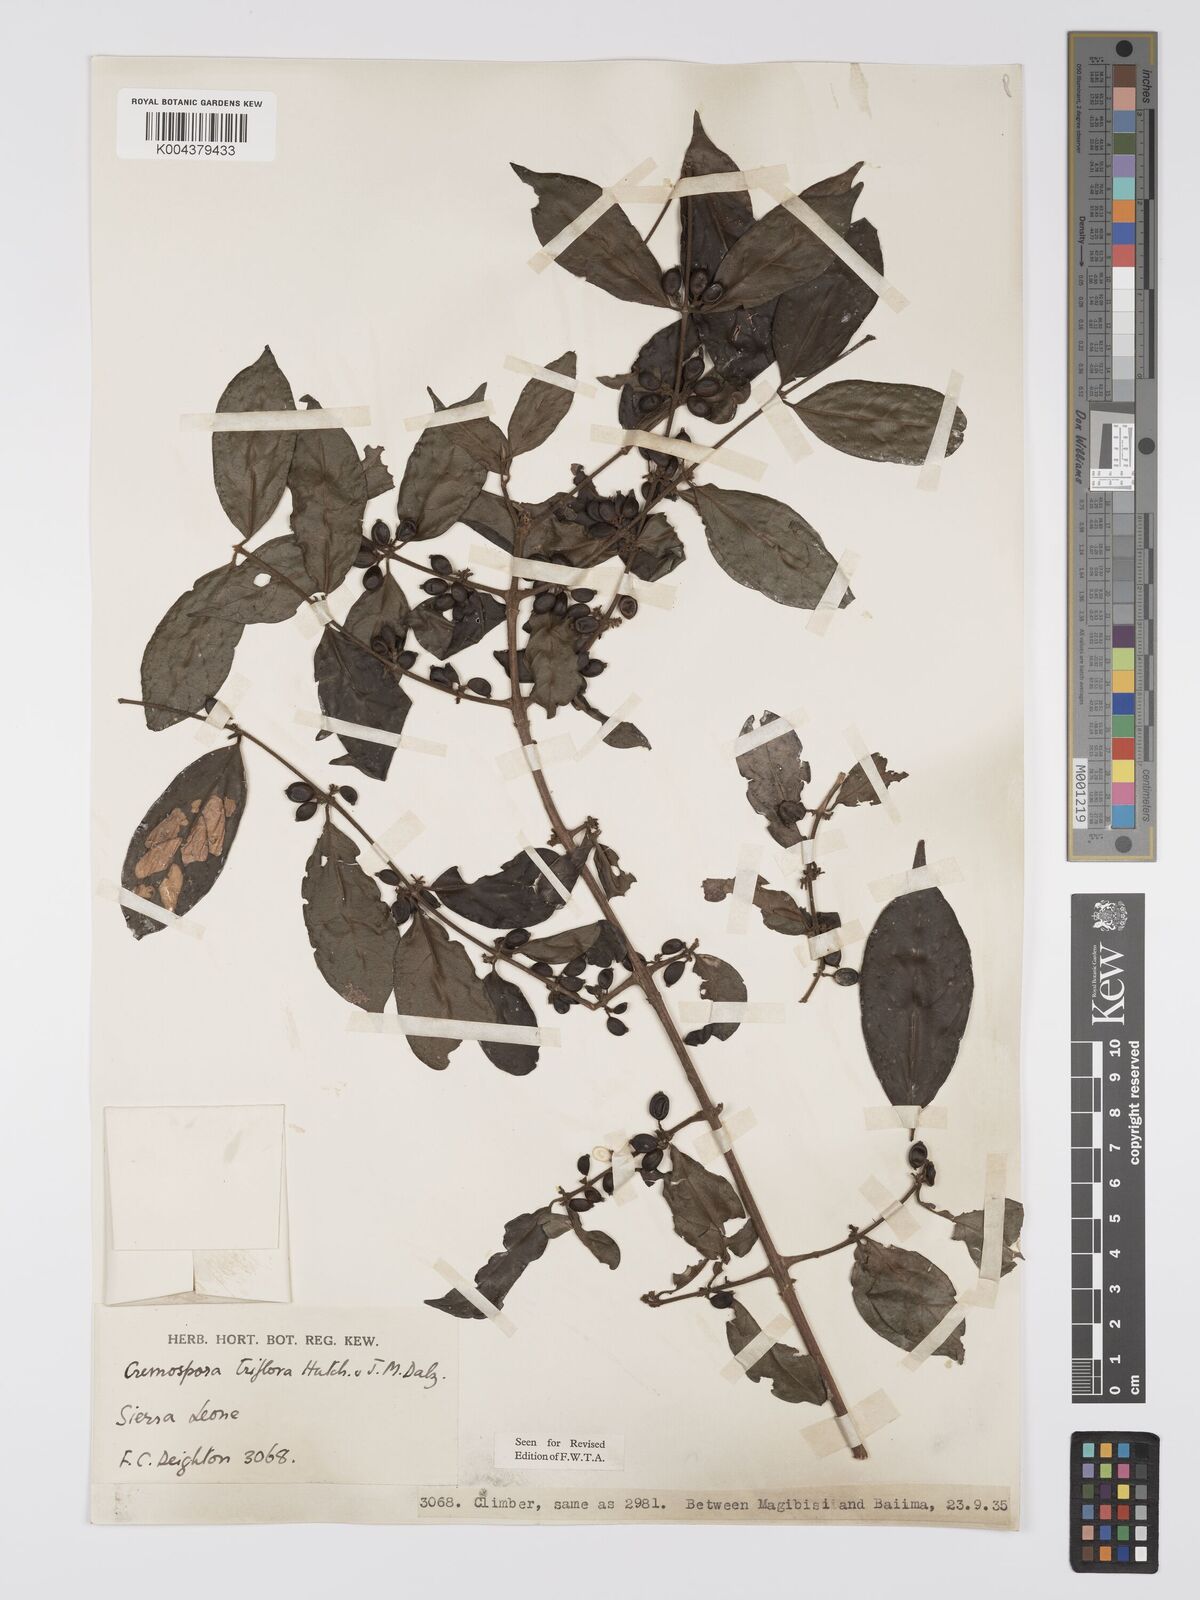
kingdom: Plantae
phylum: Tracheophyta
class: Magnoliopsida
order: Gentianales
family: Rubiaceae
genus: Cremaspora
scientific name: Cremaspora triflora
